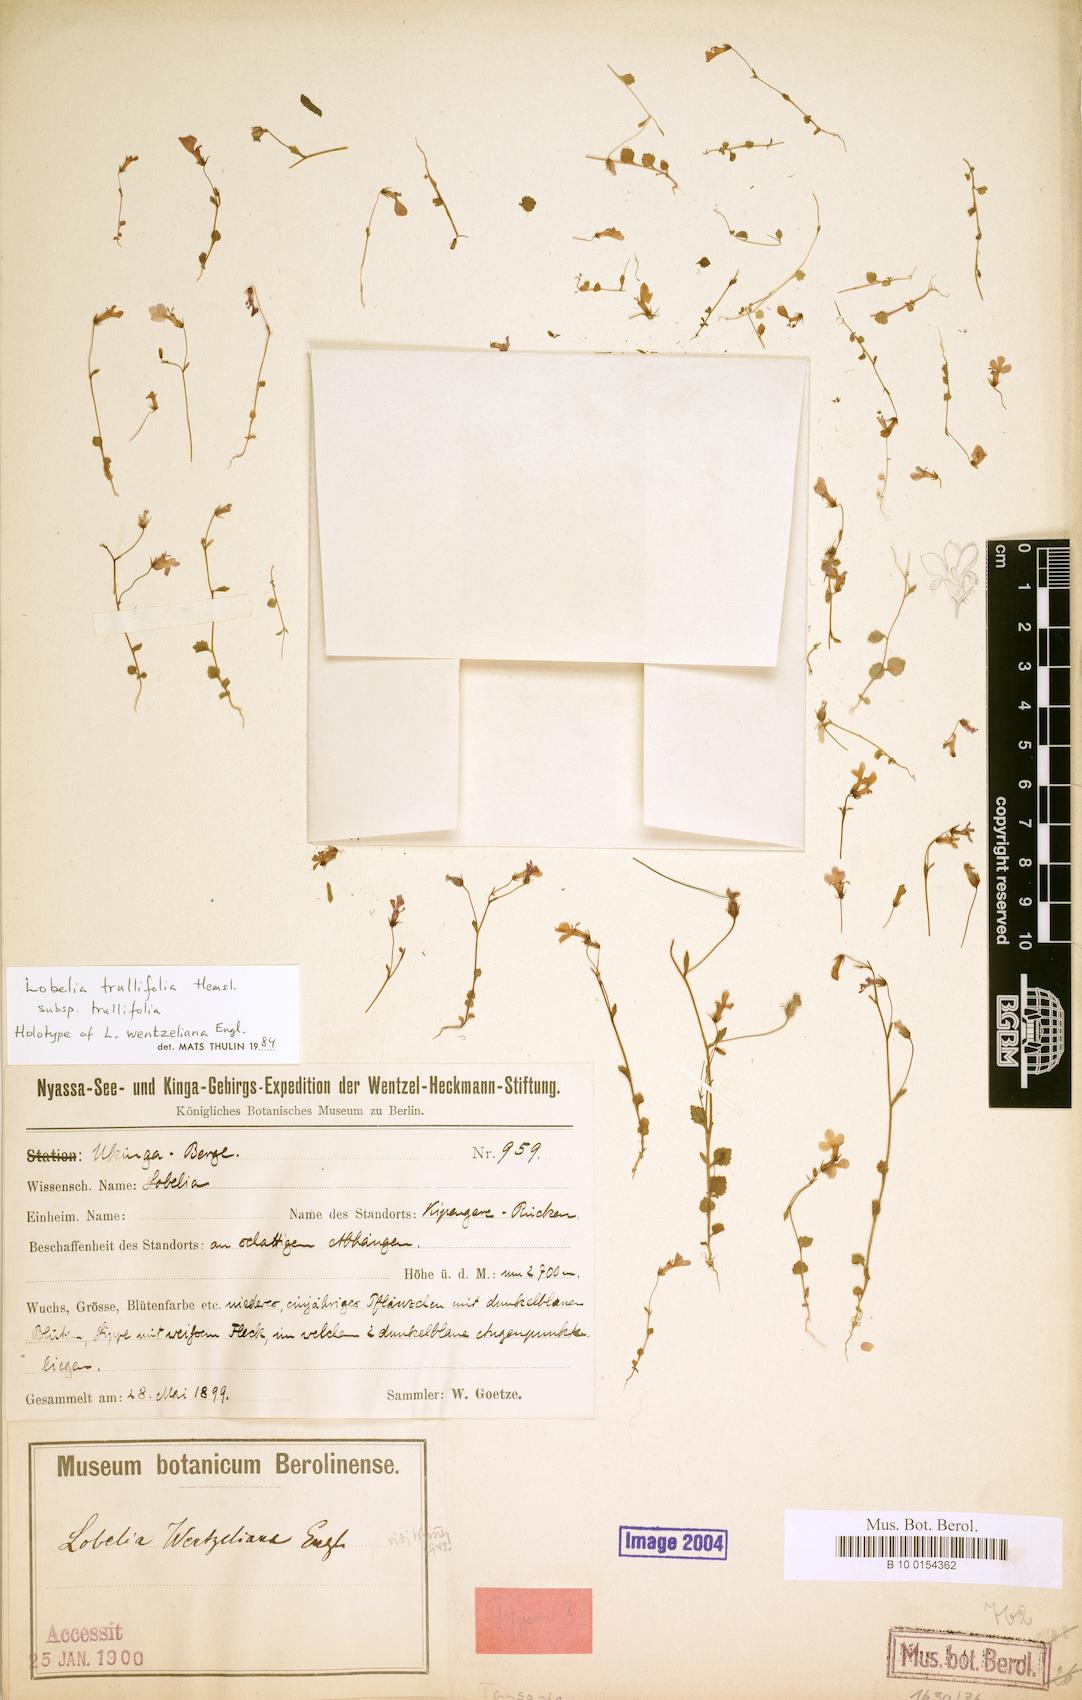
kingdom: Plantae
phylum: Tracheophyta
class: Magnoliopsida
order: Asterales
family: Campanulaceae
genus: Lobelia
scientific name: Lobelia trullifolia
